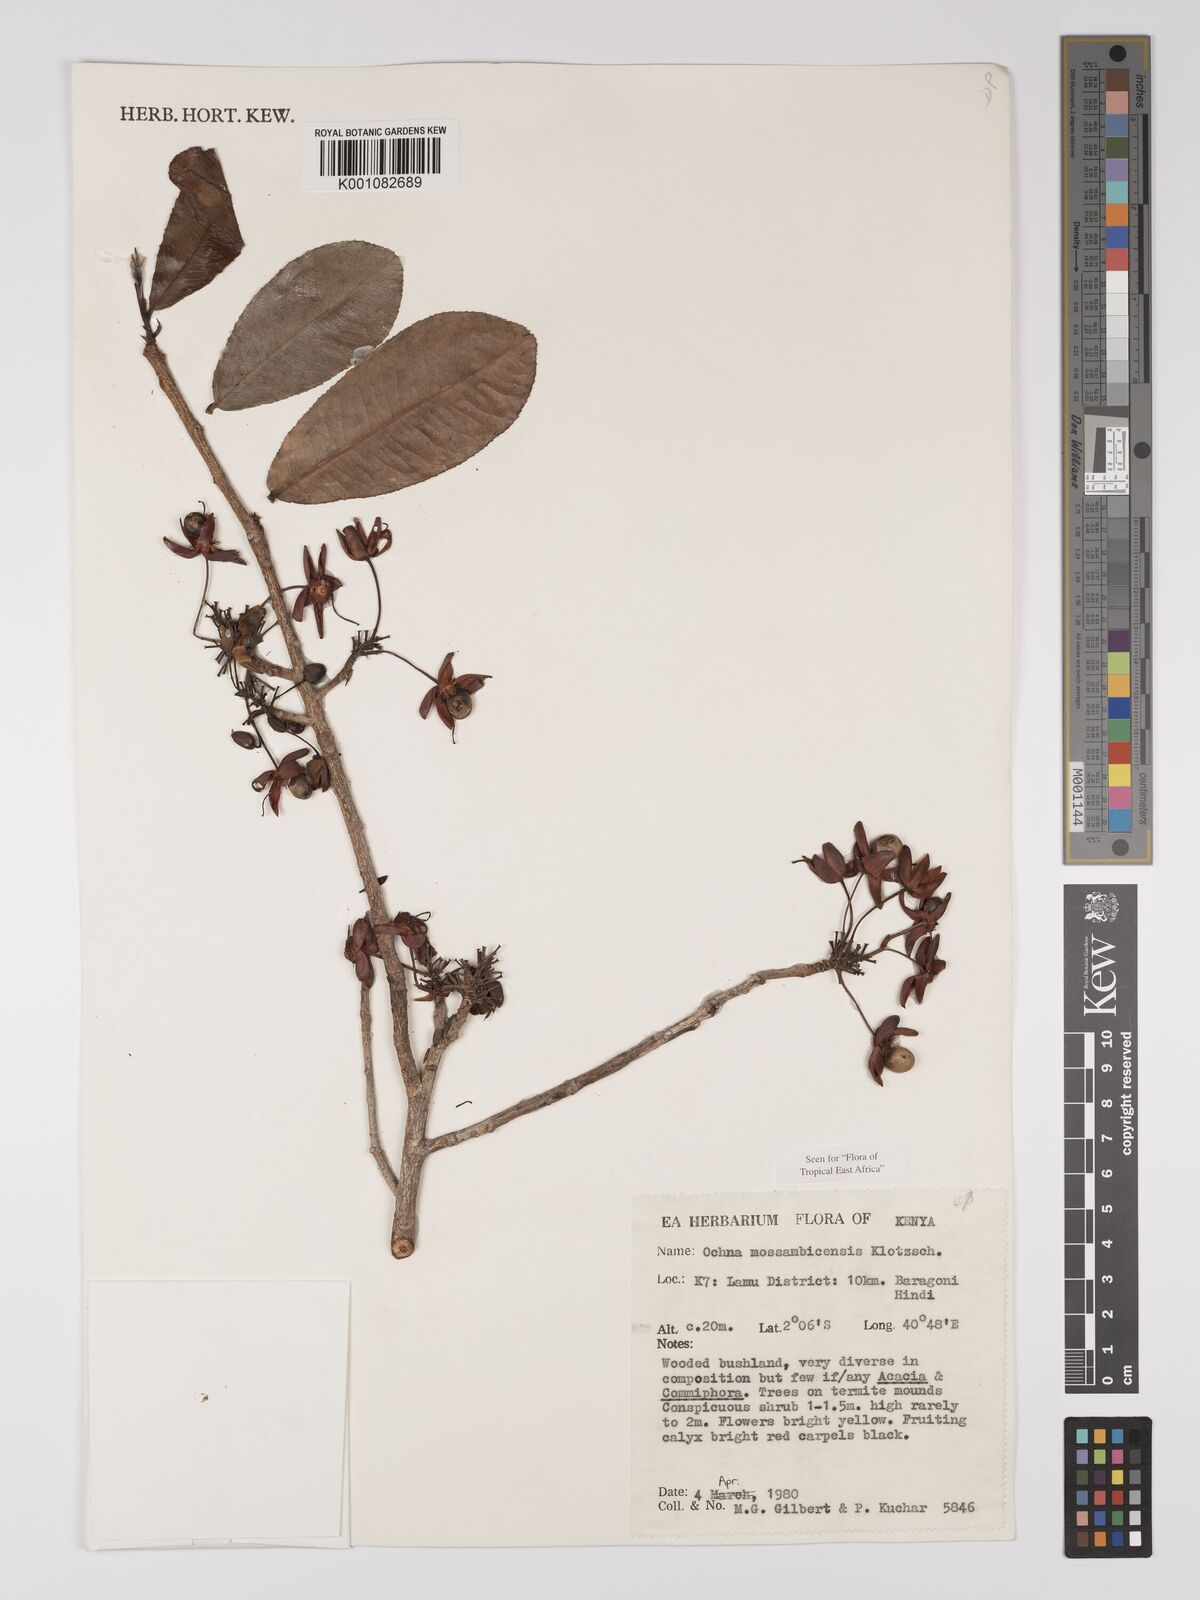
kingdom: Plantae
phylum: Tracheophyta
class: Magnoliopsida
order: Malpighiales
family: Ochnaceae
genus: Ochna
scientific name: Ochna atropurpurea
